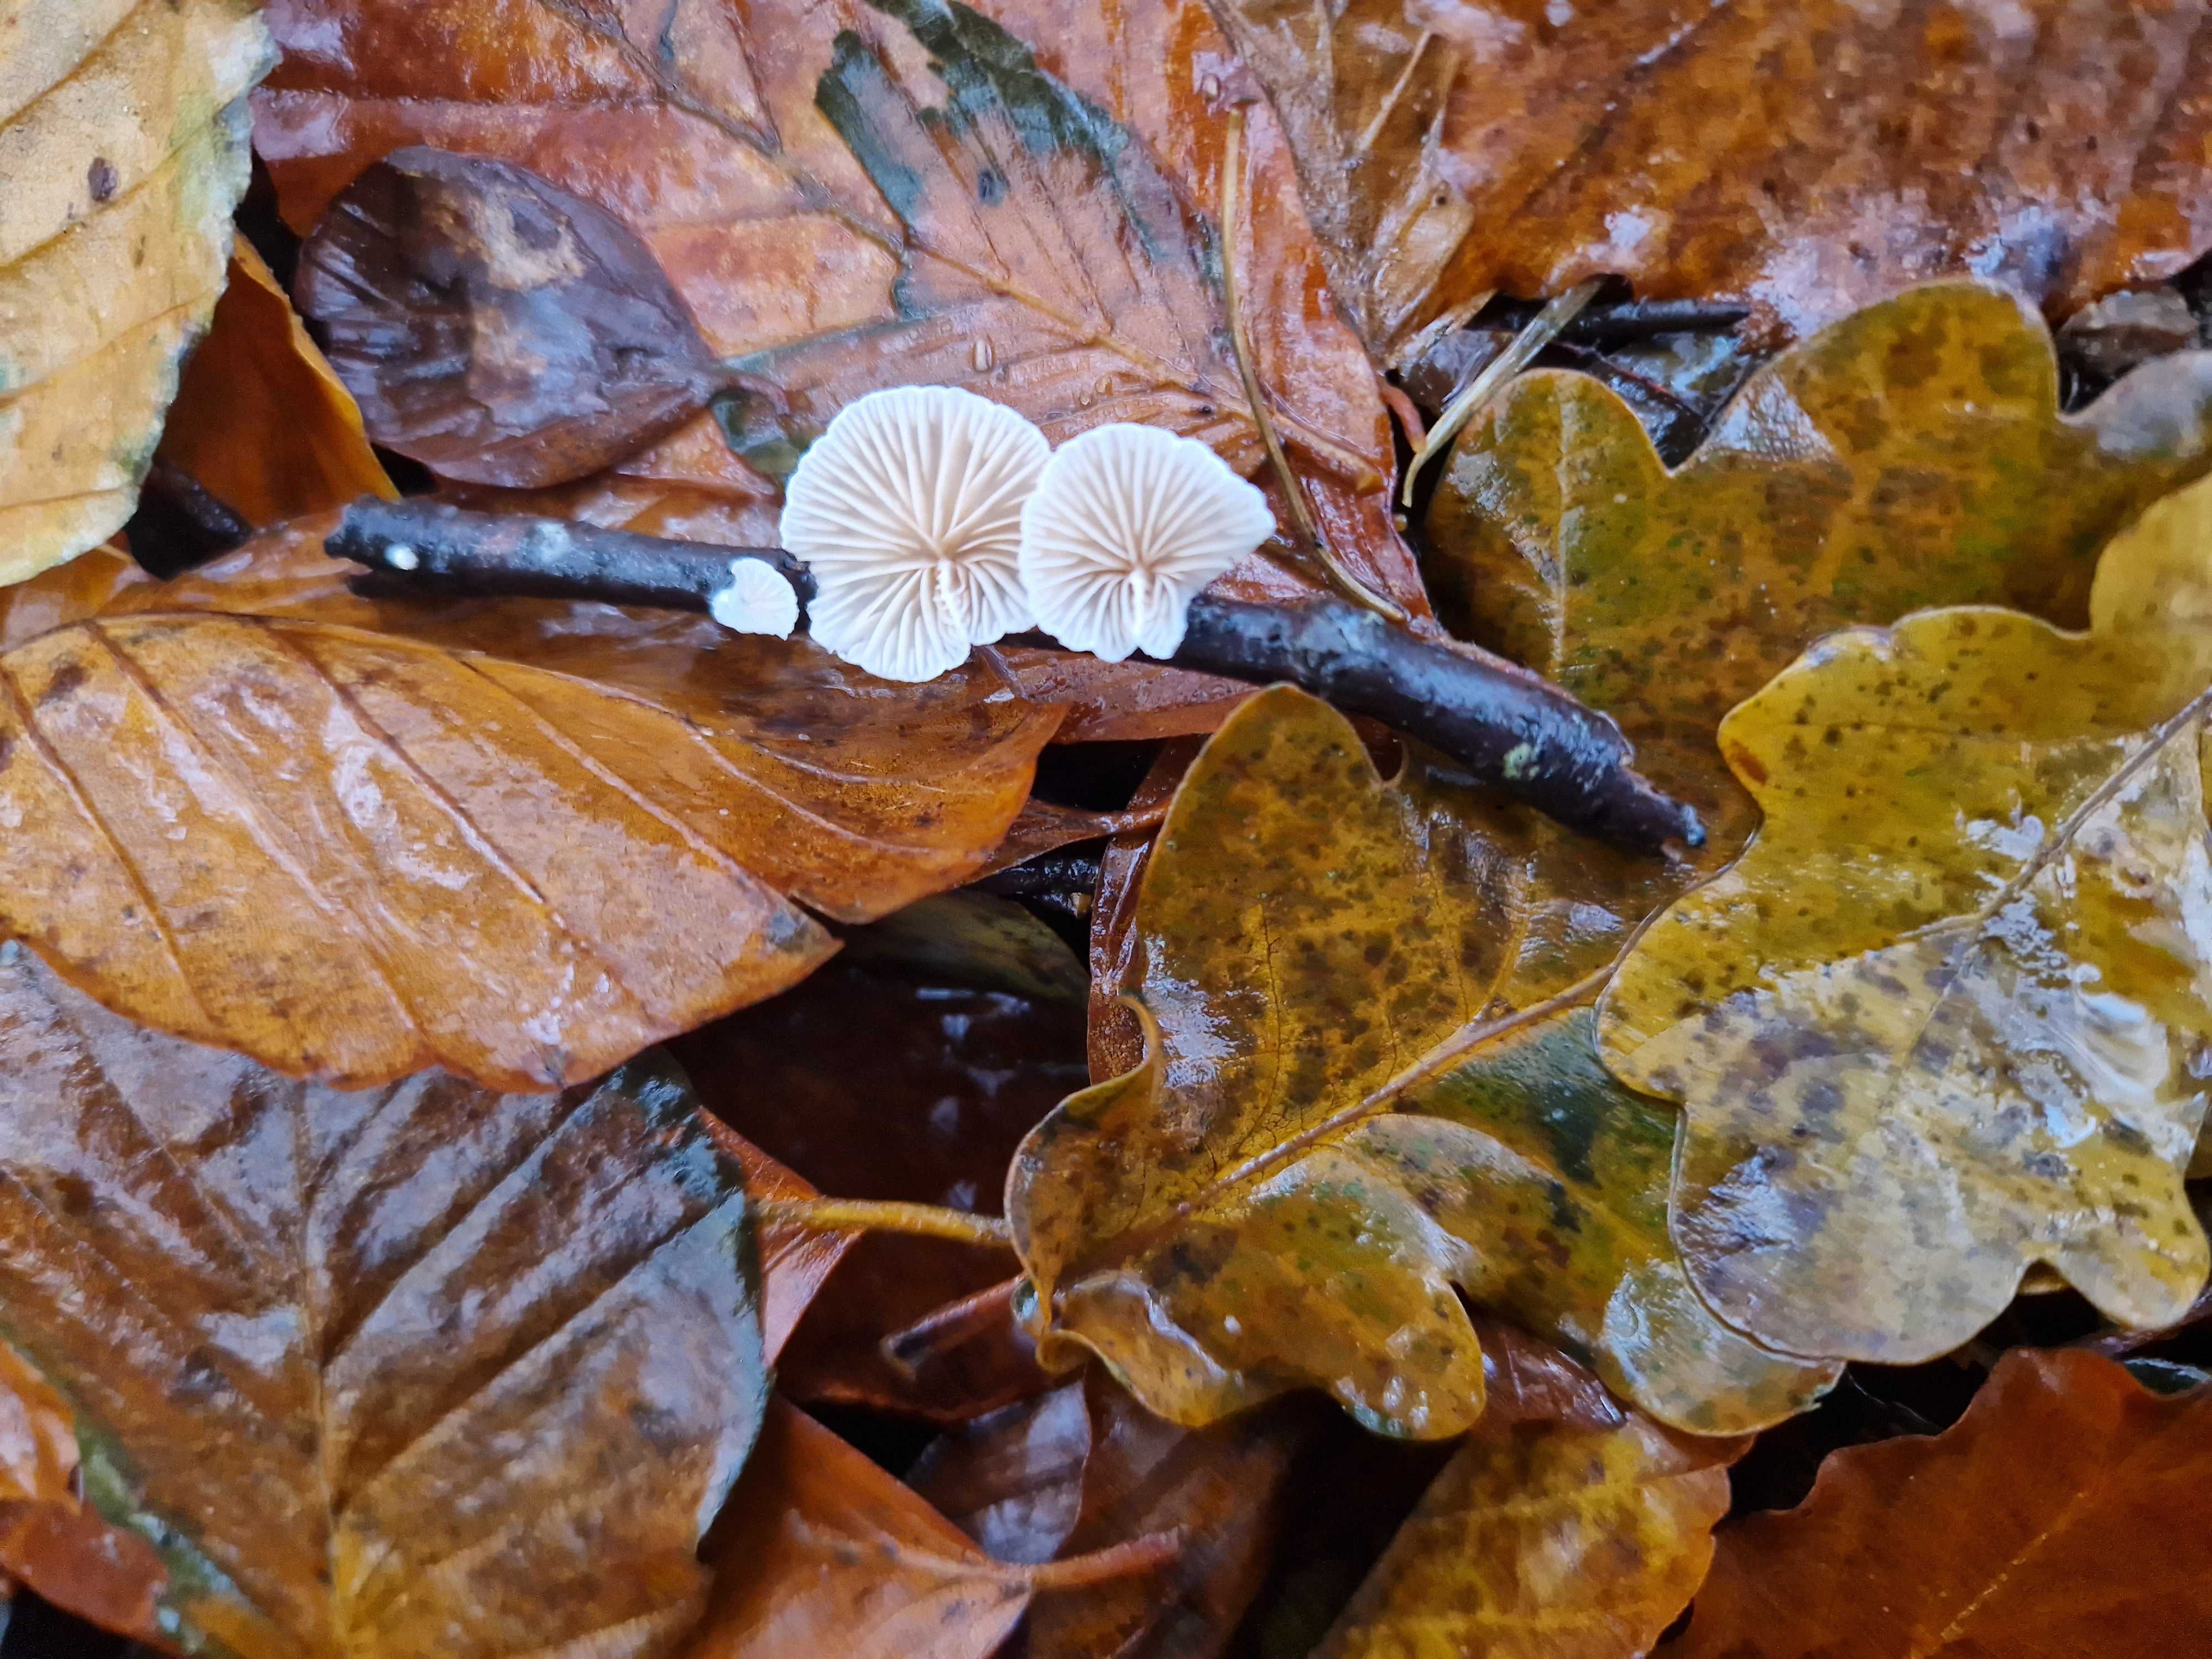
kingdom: Fungi
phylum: Basidiomycota
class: Agaricomycetes
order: Agaricales
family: Crepidotaceae
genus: Crepidotus
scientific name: Crepidotus
